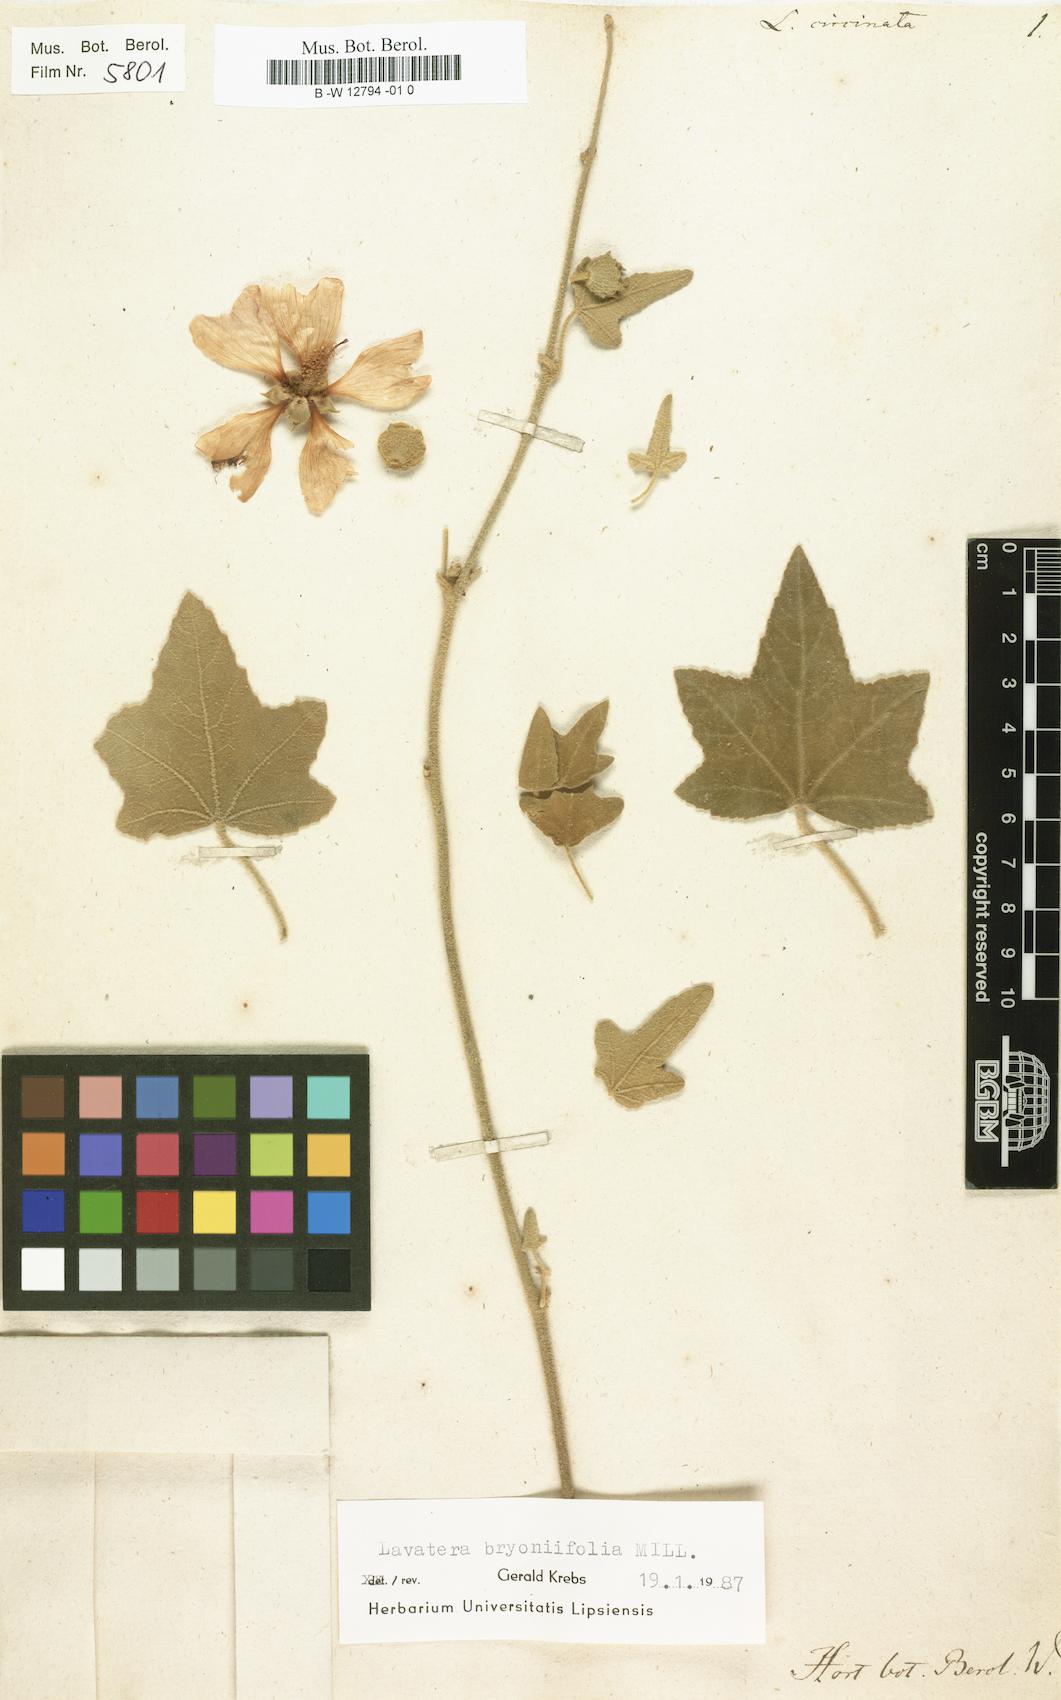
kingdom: Plantae
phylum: Tracheophyta
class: Magnoliopsida
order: Malvales
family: Malvaceae
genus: Malva
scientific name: Malva
